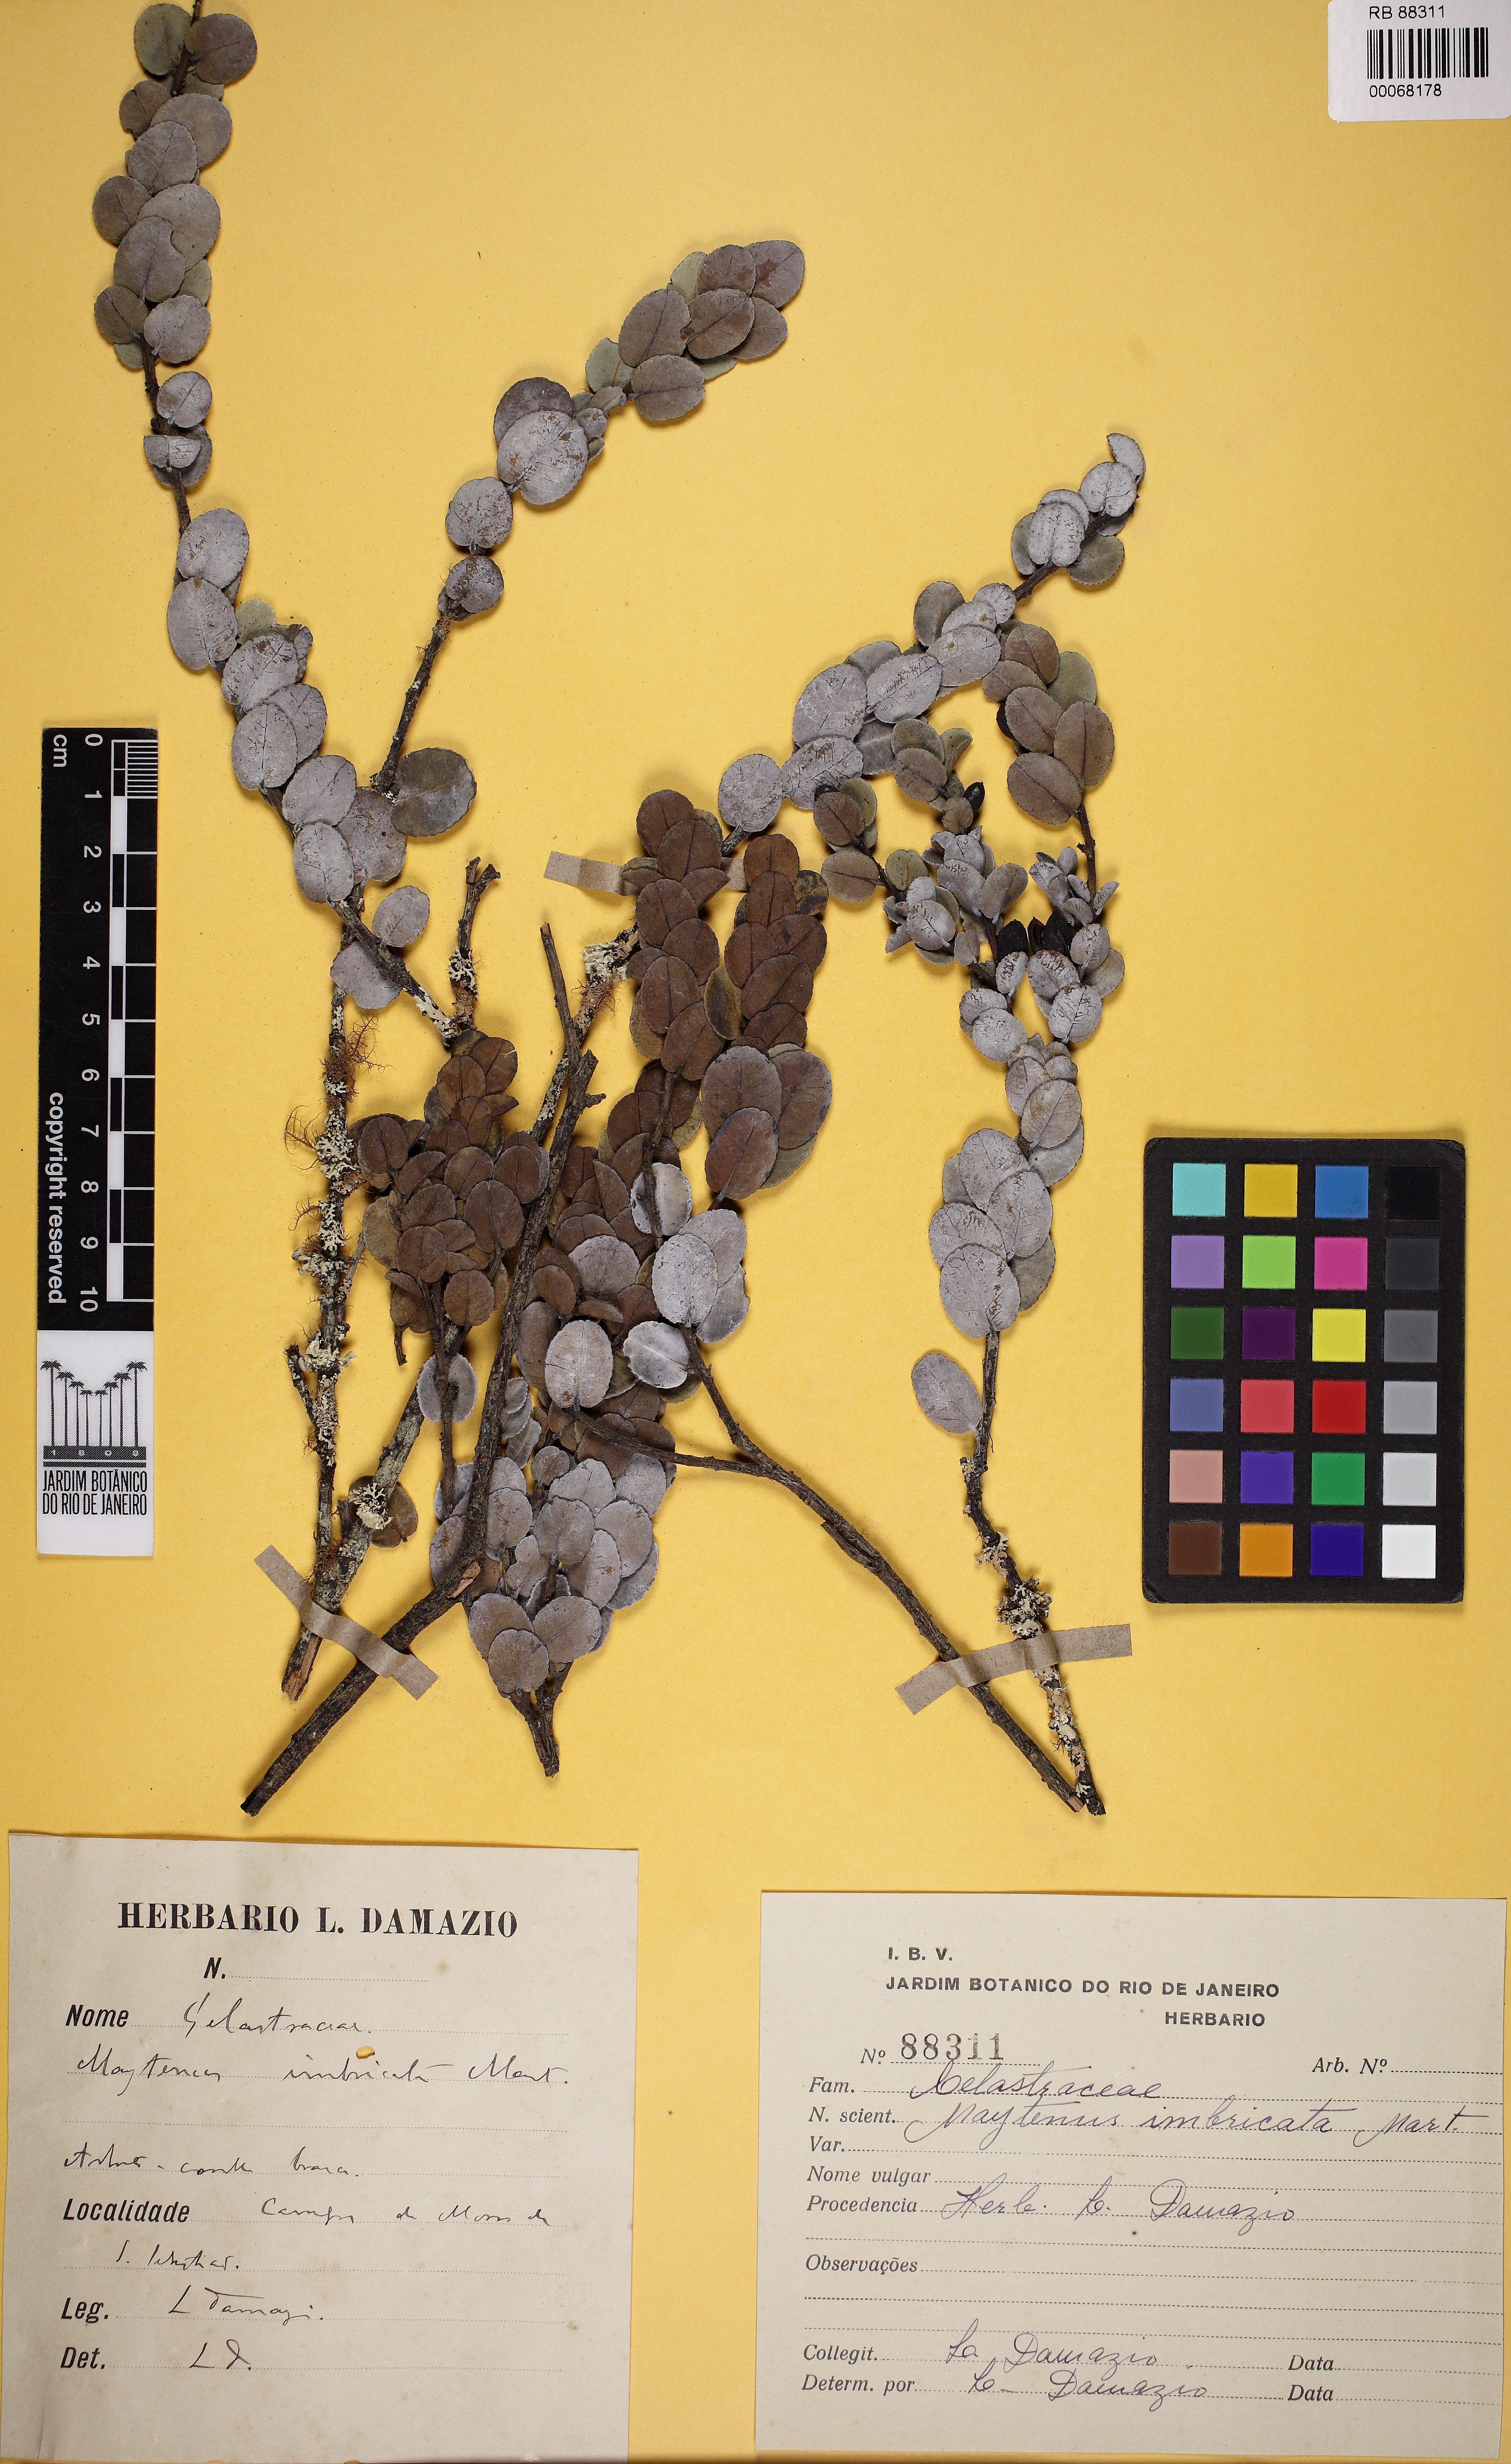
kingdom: Plantae
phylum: Tracheophyta
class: Magnoliopsida
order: Celastrales
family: Celastraceae
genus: Monteverdia
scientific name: Monteverdia imbricata
